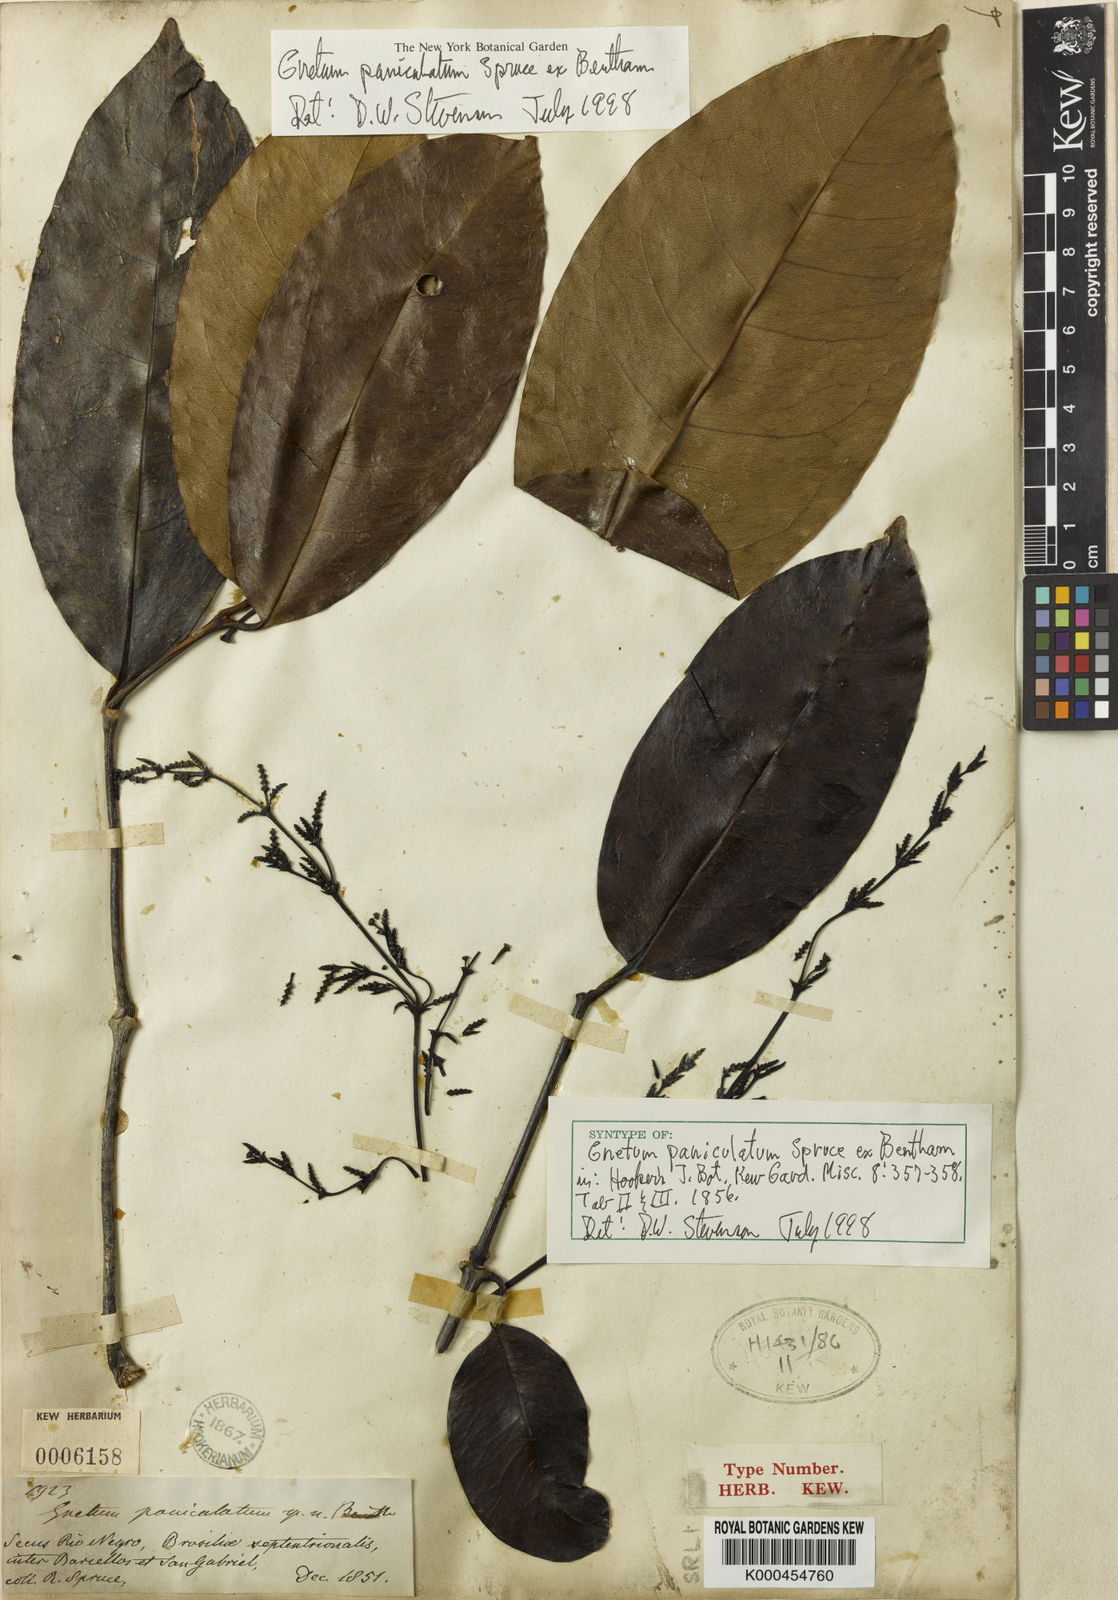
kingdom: Plantae
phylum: Tracheophyta
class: Gnetopsida
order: Gnetales
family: Gnetaceae
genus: Gnetum
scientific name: Gnetum paniculatum
